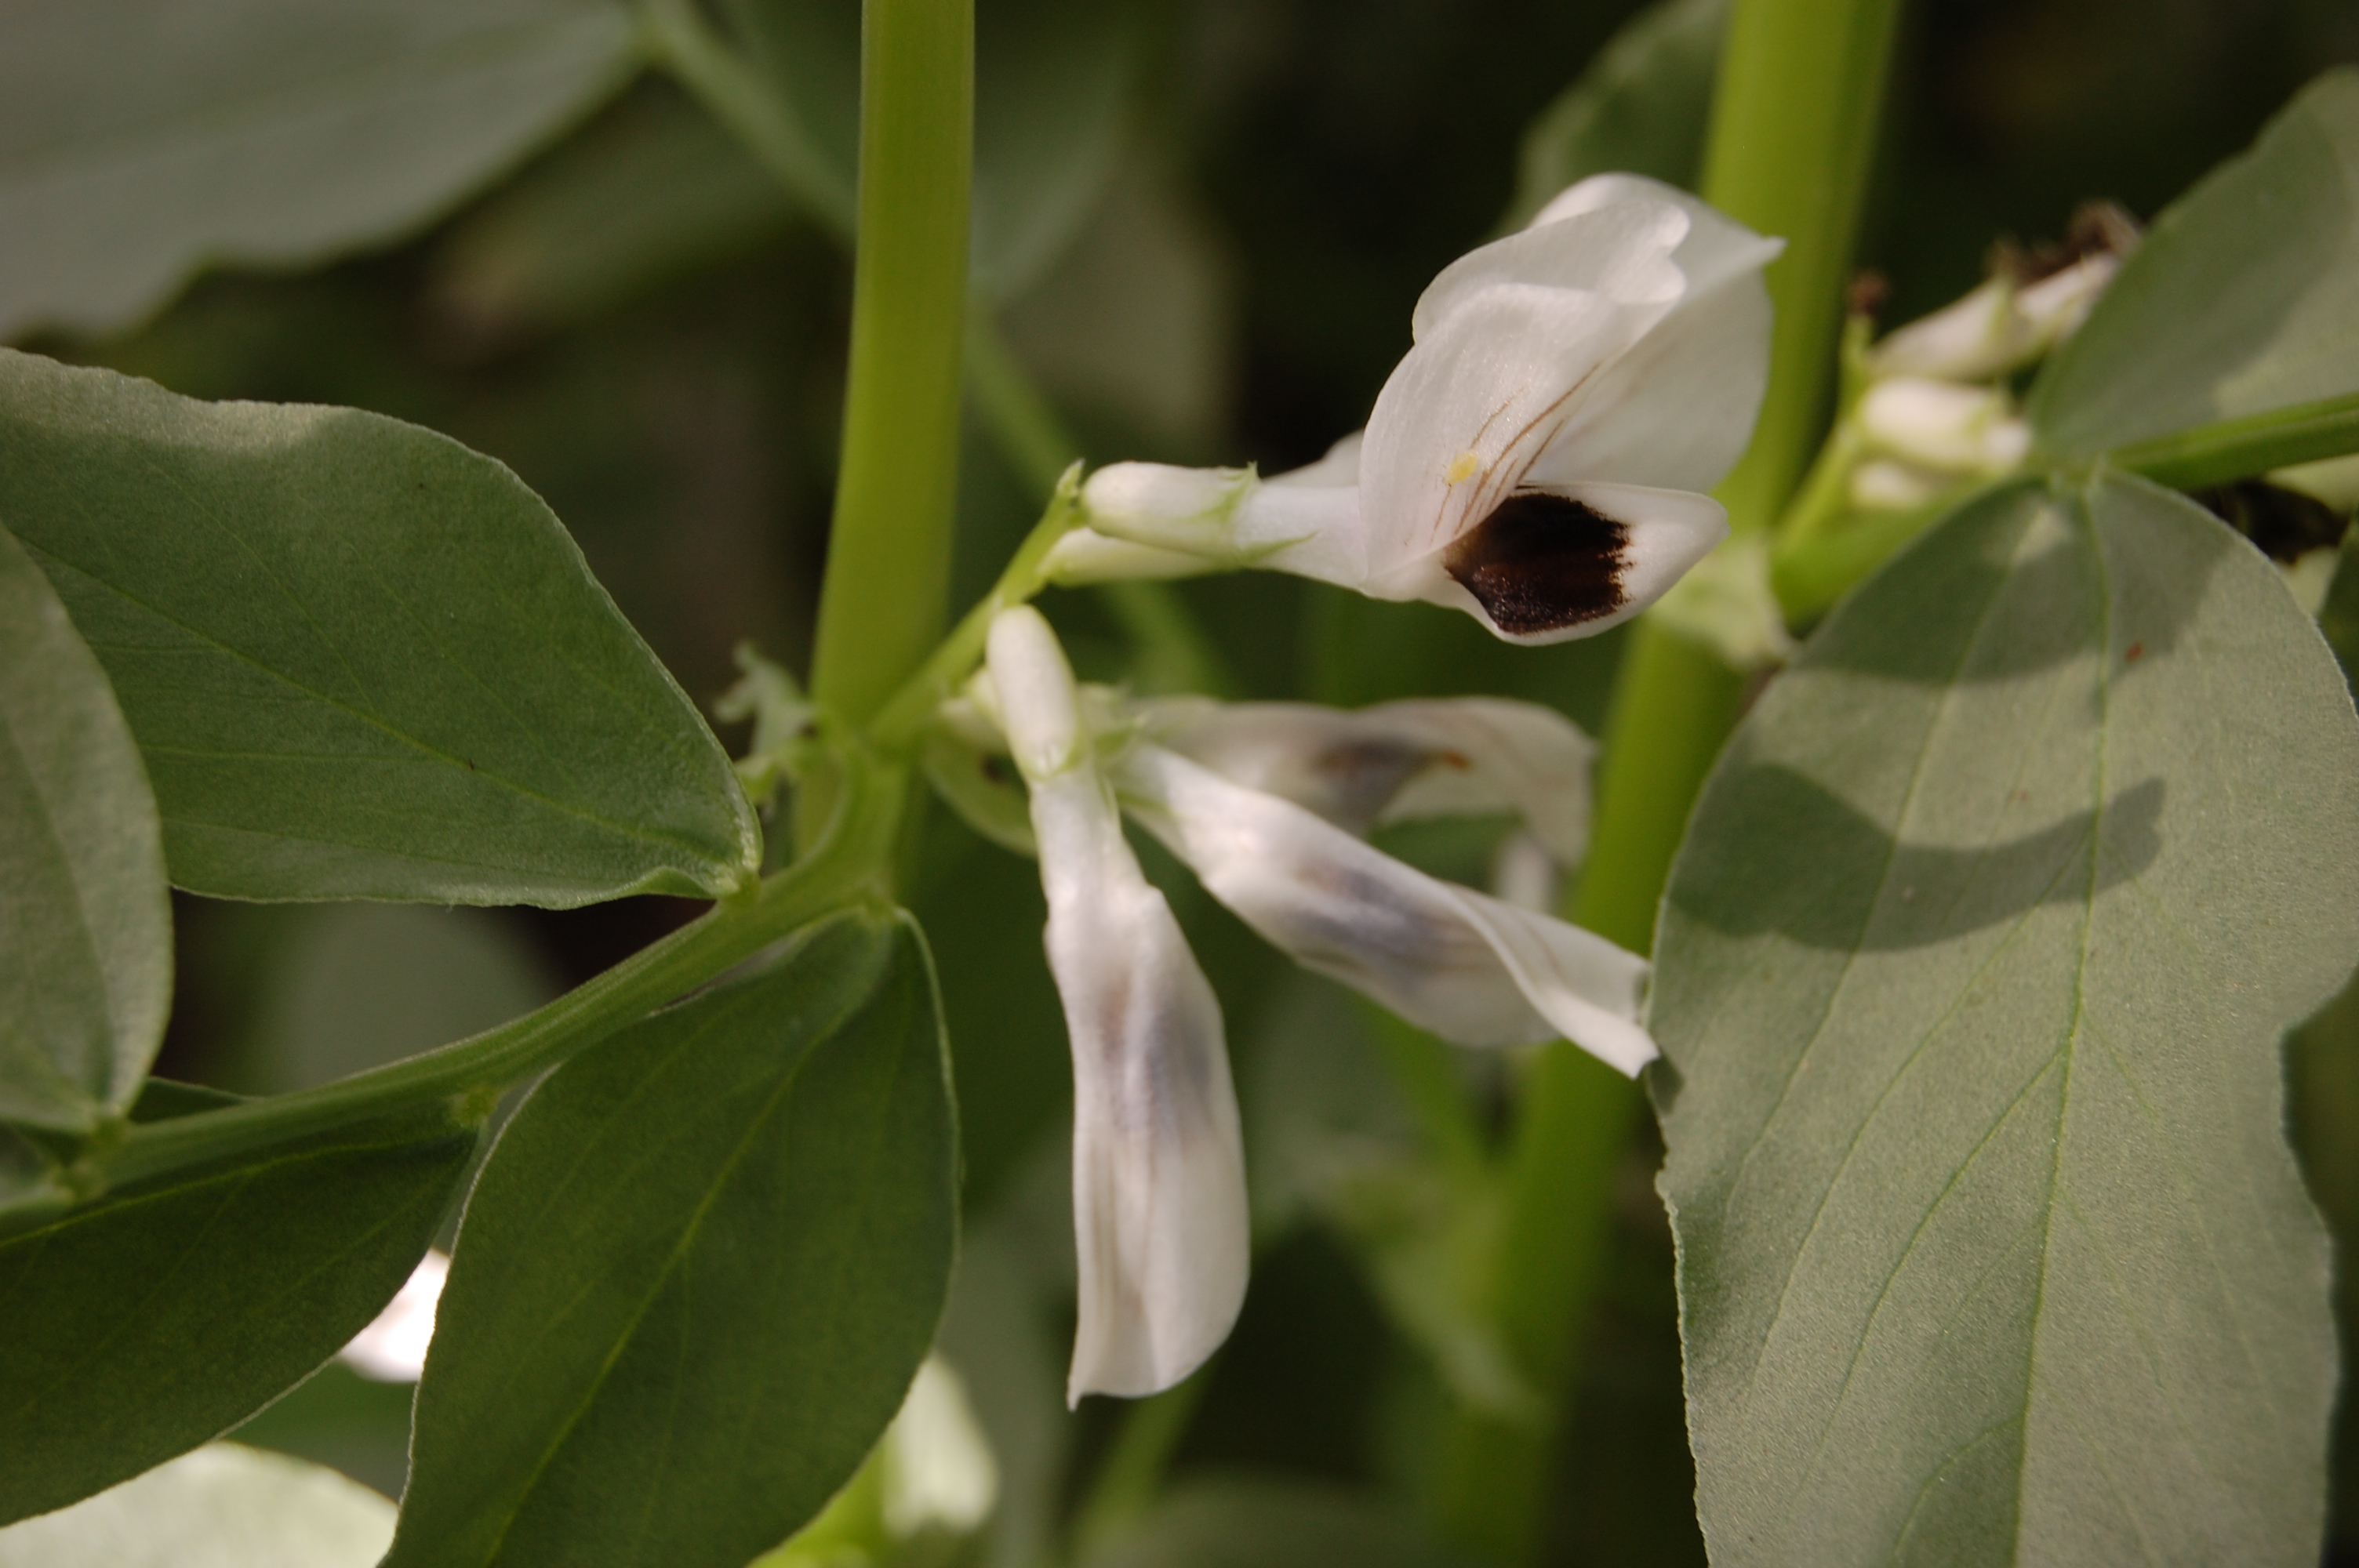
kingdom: Plantae
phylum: Tracheophyta
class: Magnoliopsida
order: Fabales
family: Fabaceae
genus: Vicia
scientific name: Vicia faba
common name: Broad bean
